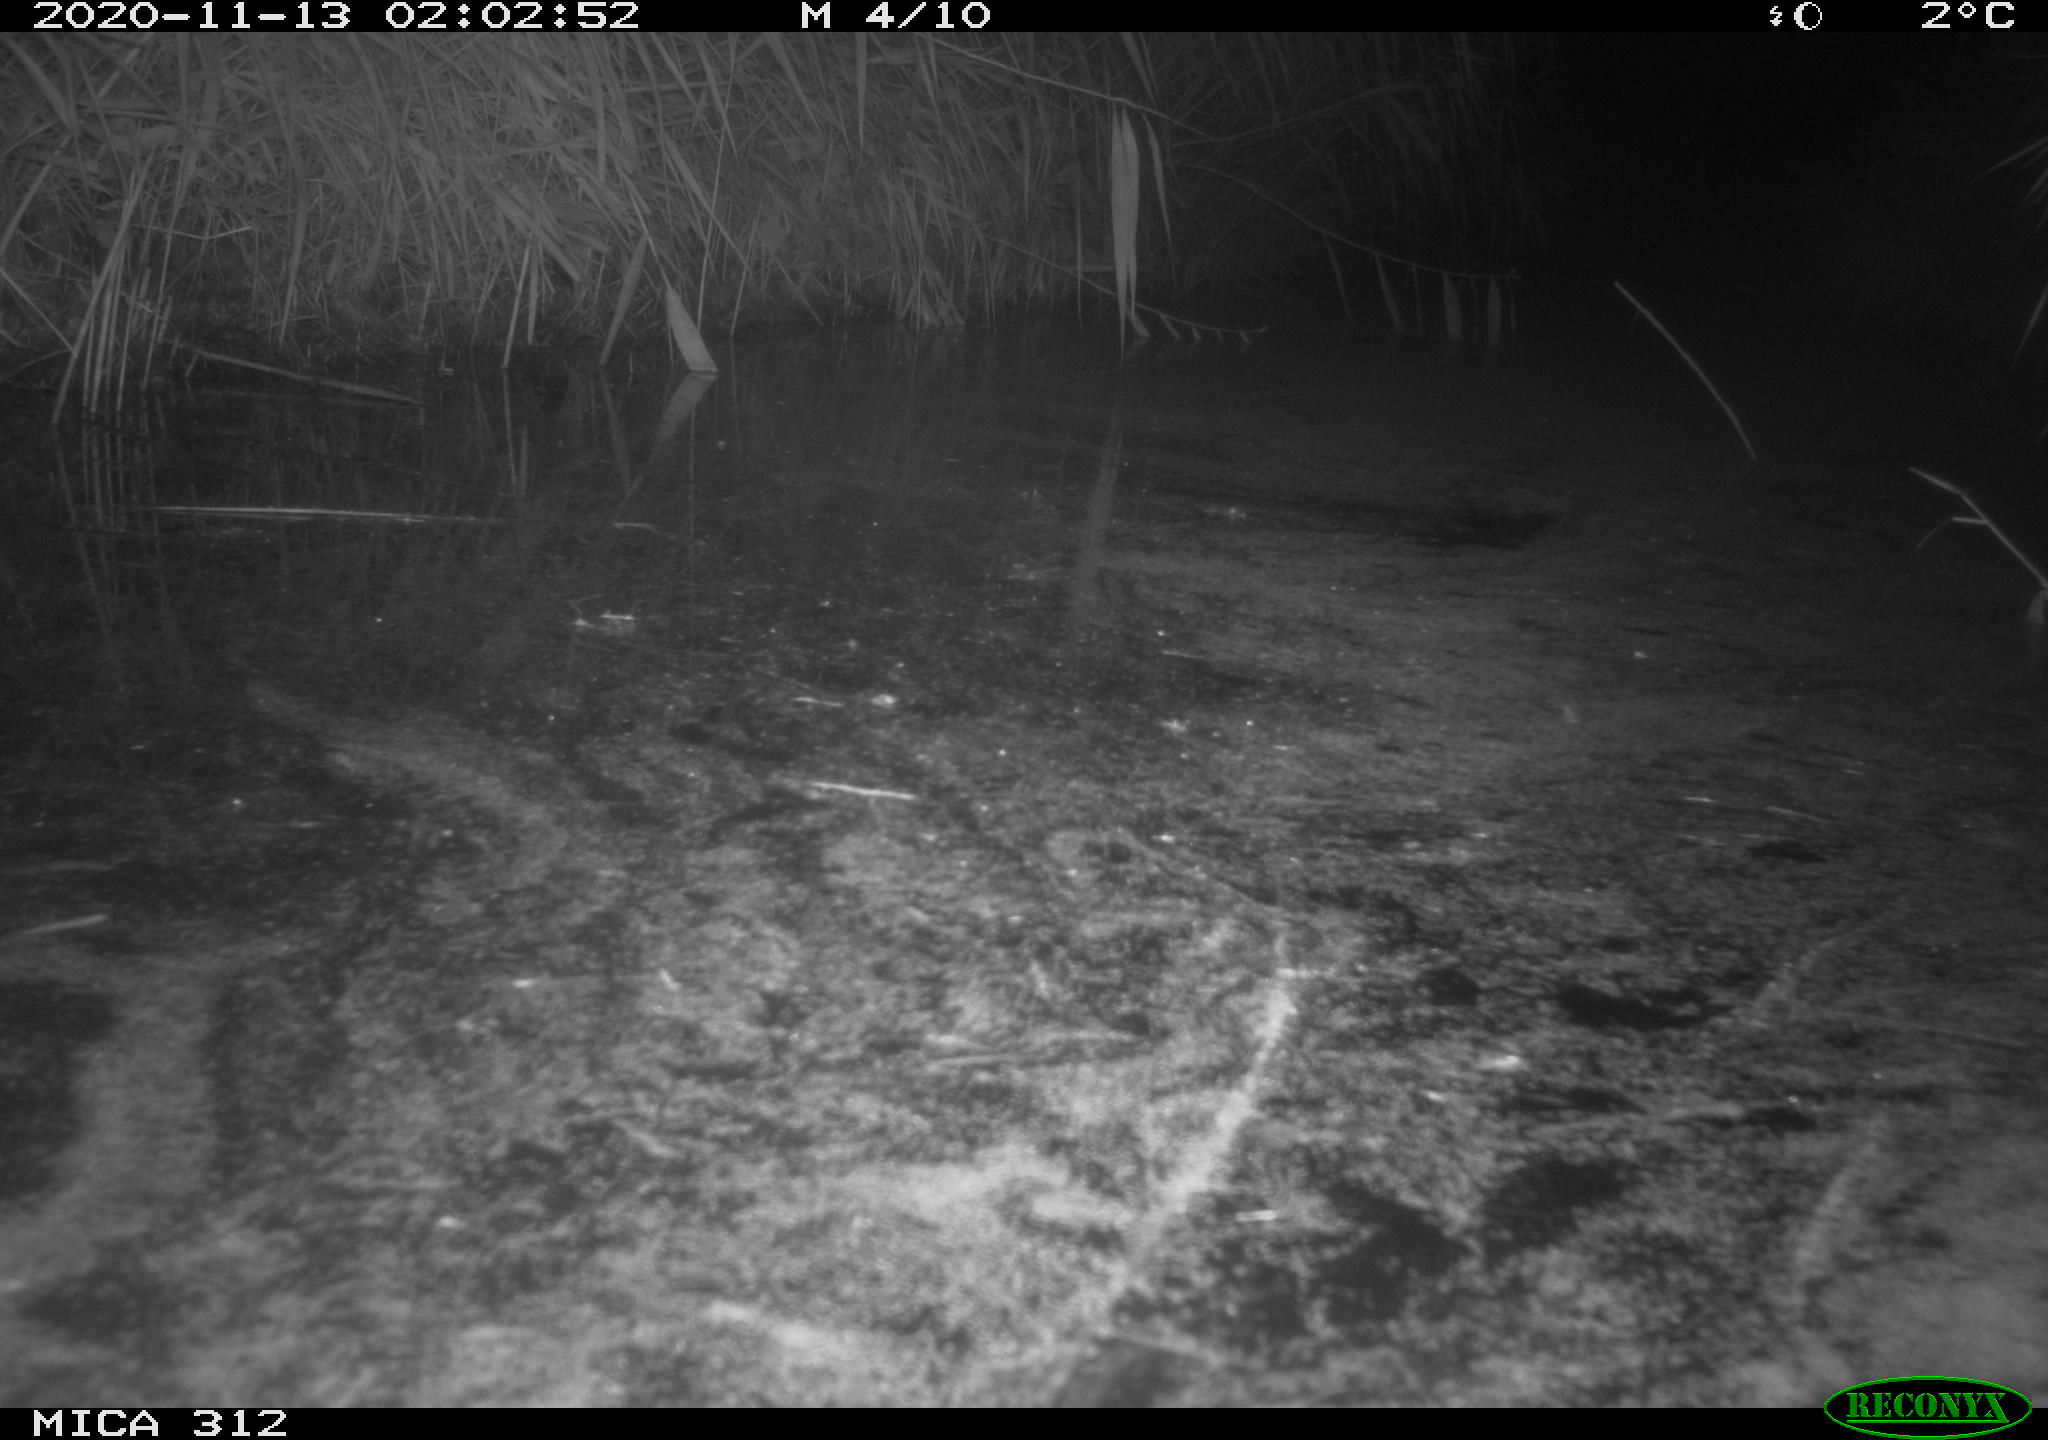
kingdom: Animalia
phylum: Chordata
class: Mammalia
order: Rodentia
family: Muridae
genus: Rattus
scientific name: Rattus norvegicus
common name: Brown rat
